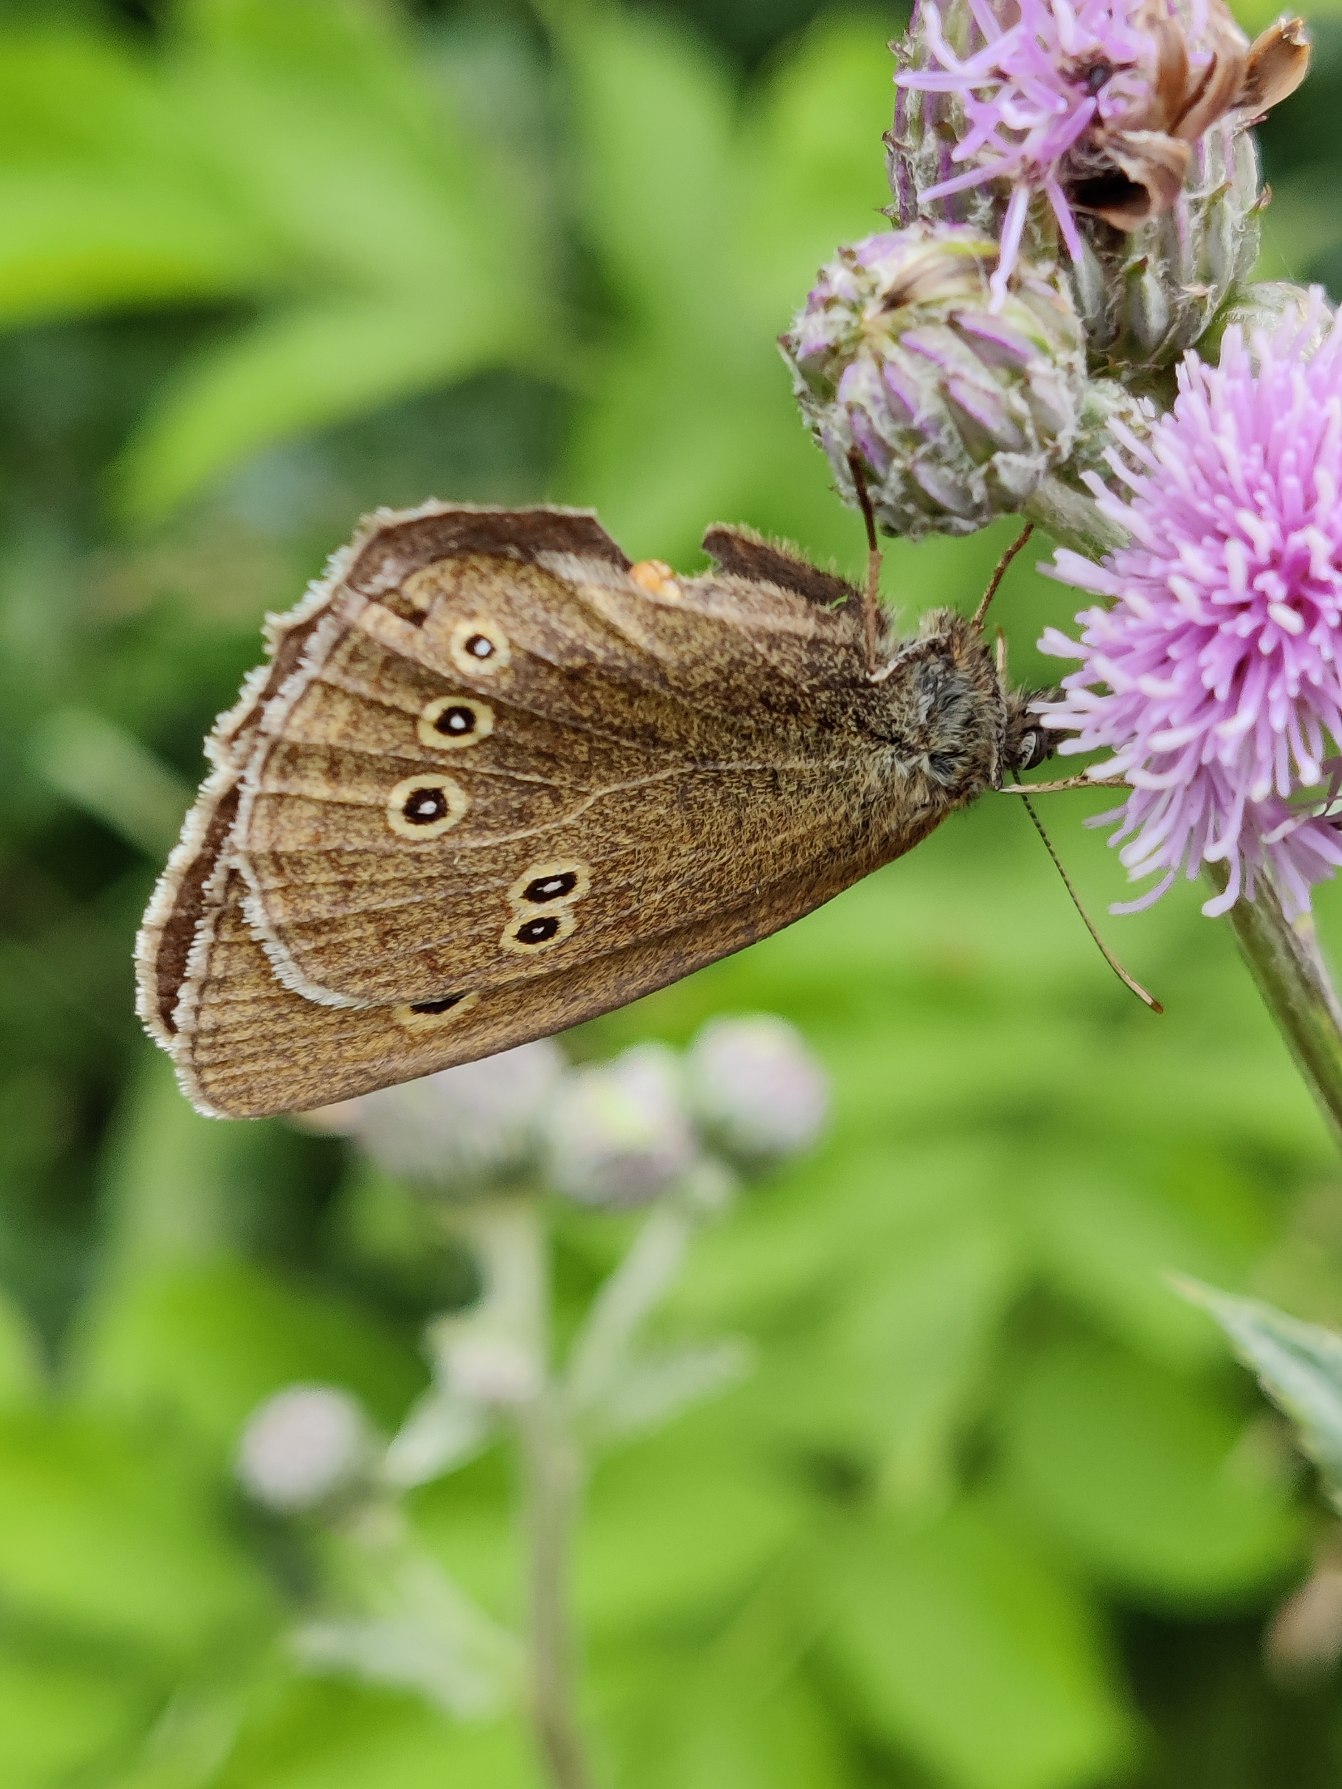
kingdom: Animalia
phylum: Arthropoda
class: Insecta
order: Lepidoptera
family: Nymphalidae
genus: Aphantopus
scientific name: Aphantopus hyperantus
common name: Engrandøje
